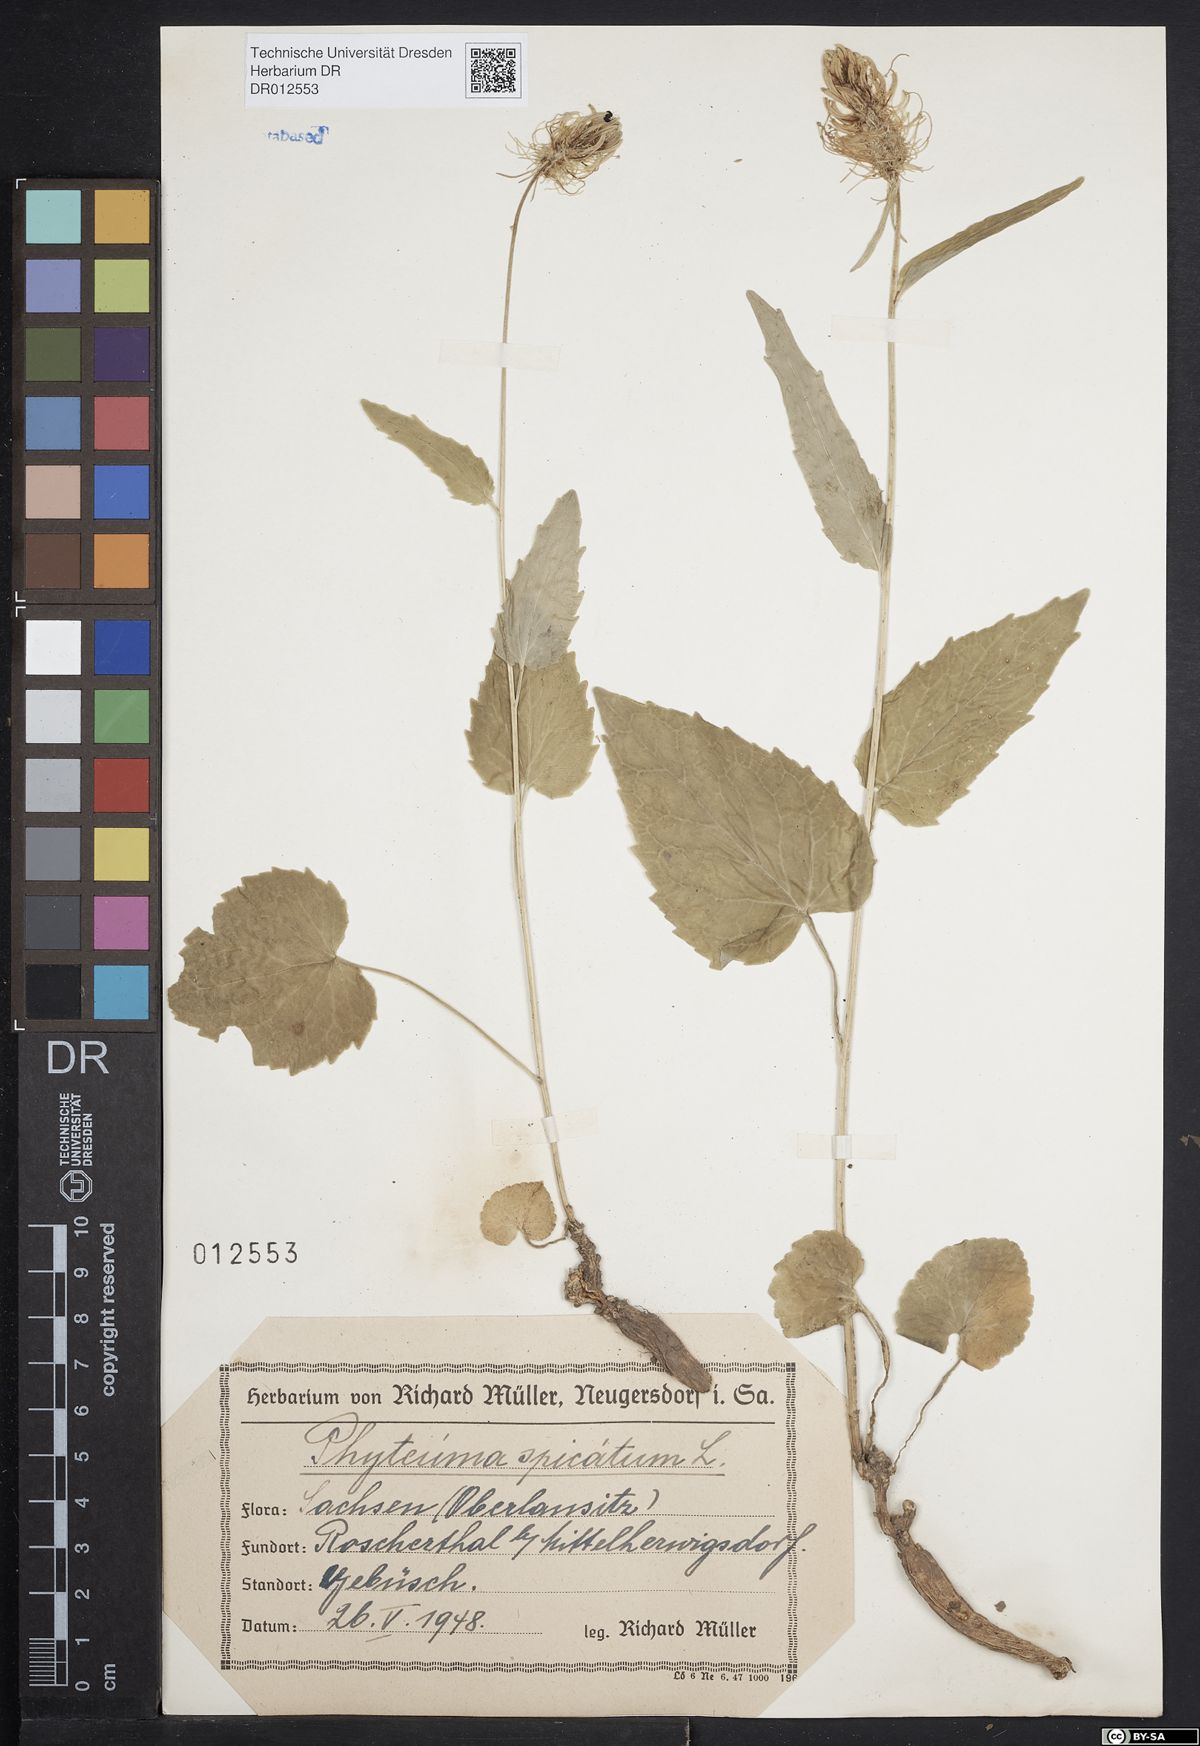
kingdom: Plantae
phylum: Tracheophyta
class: Magnoliopsida
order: Asterales
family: Campanulaceae
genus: Phyteuma
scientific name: Phyteuma spicatum
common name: Spiked rampion
